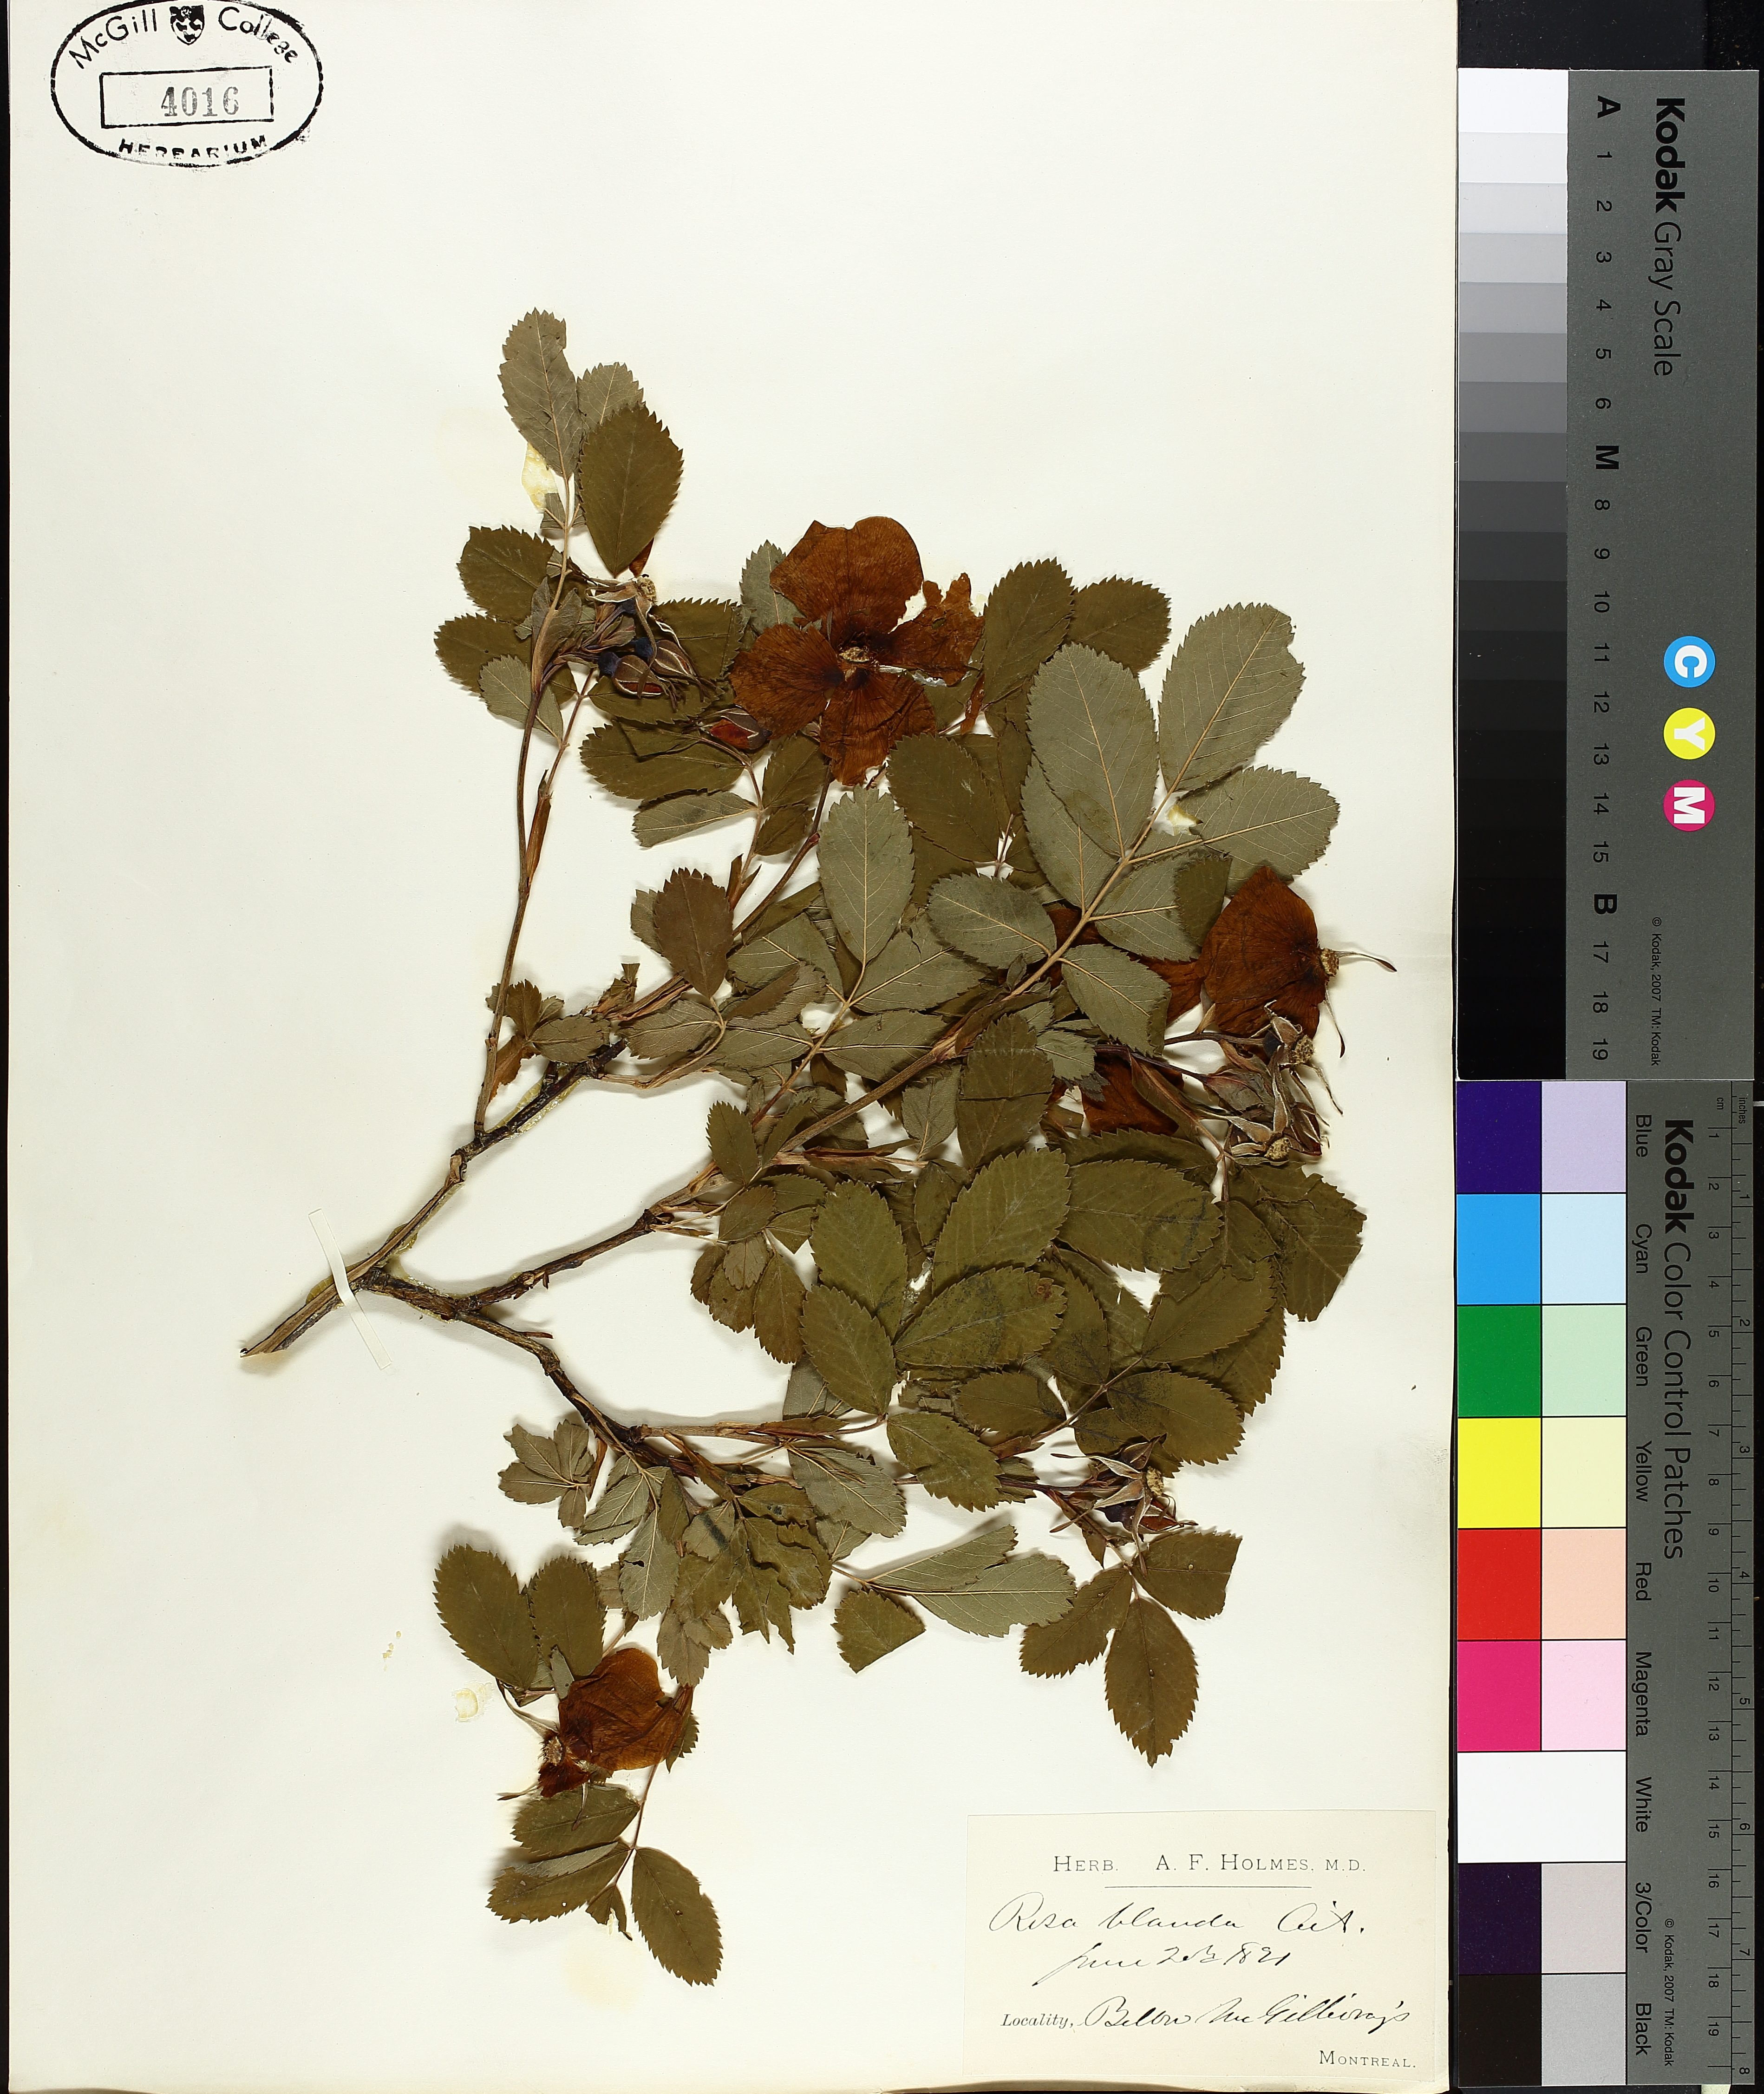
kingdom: Plantae
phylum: Tracheophyta
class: Magnoliopsida
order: Rosales
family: Rosaceae
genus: Rosa
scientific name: Rosa blanda
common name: Smooth rose
